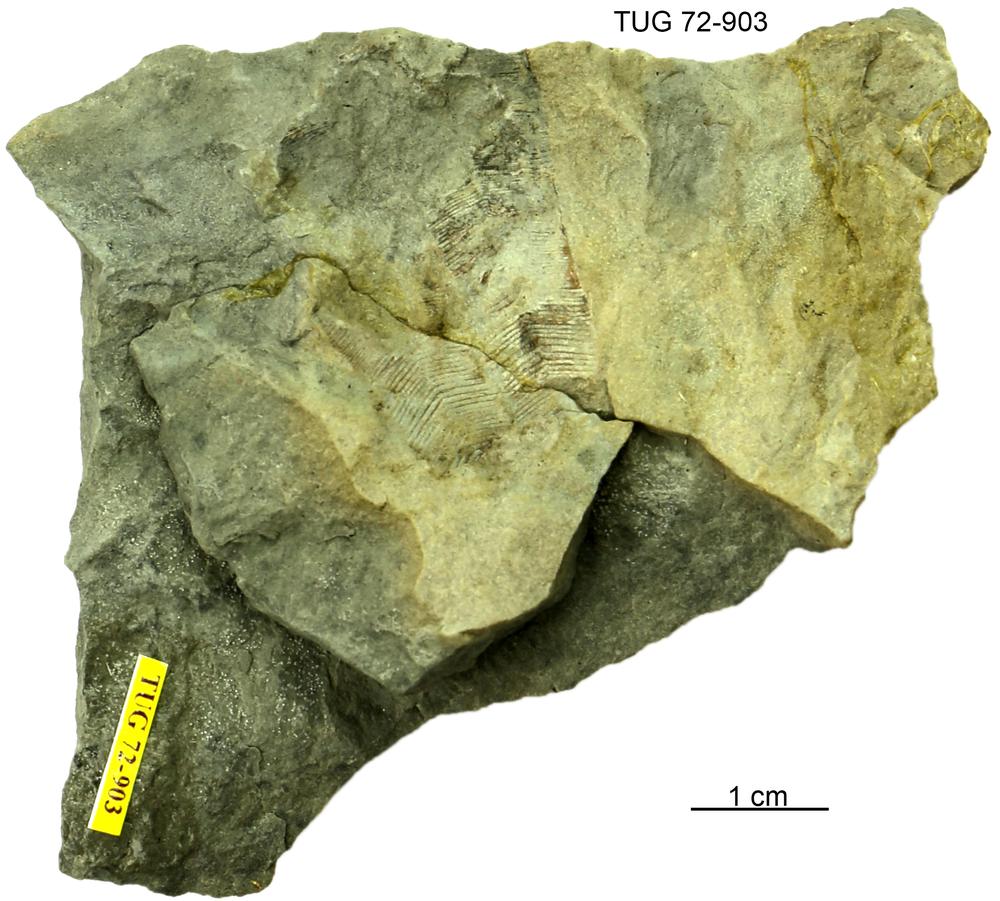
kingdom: Animalia
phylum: Cnidaria
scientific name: Cnidaria
